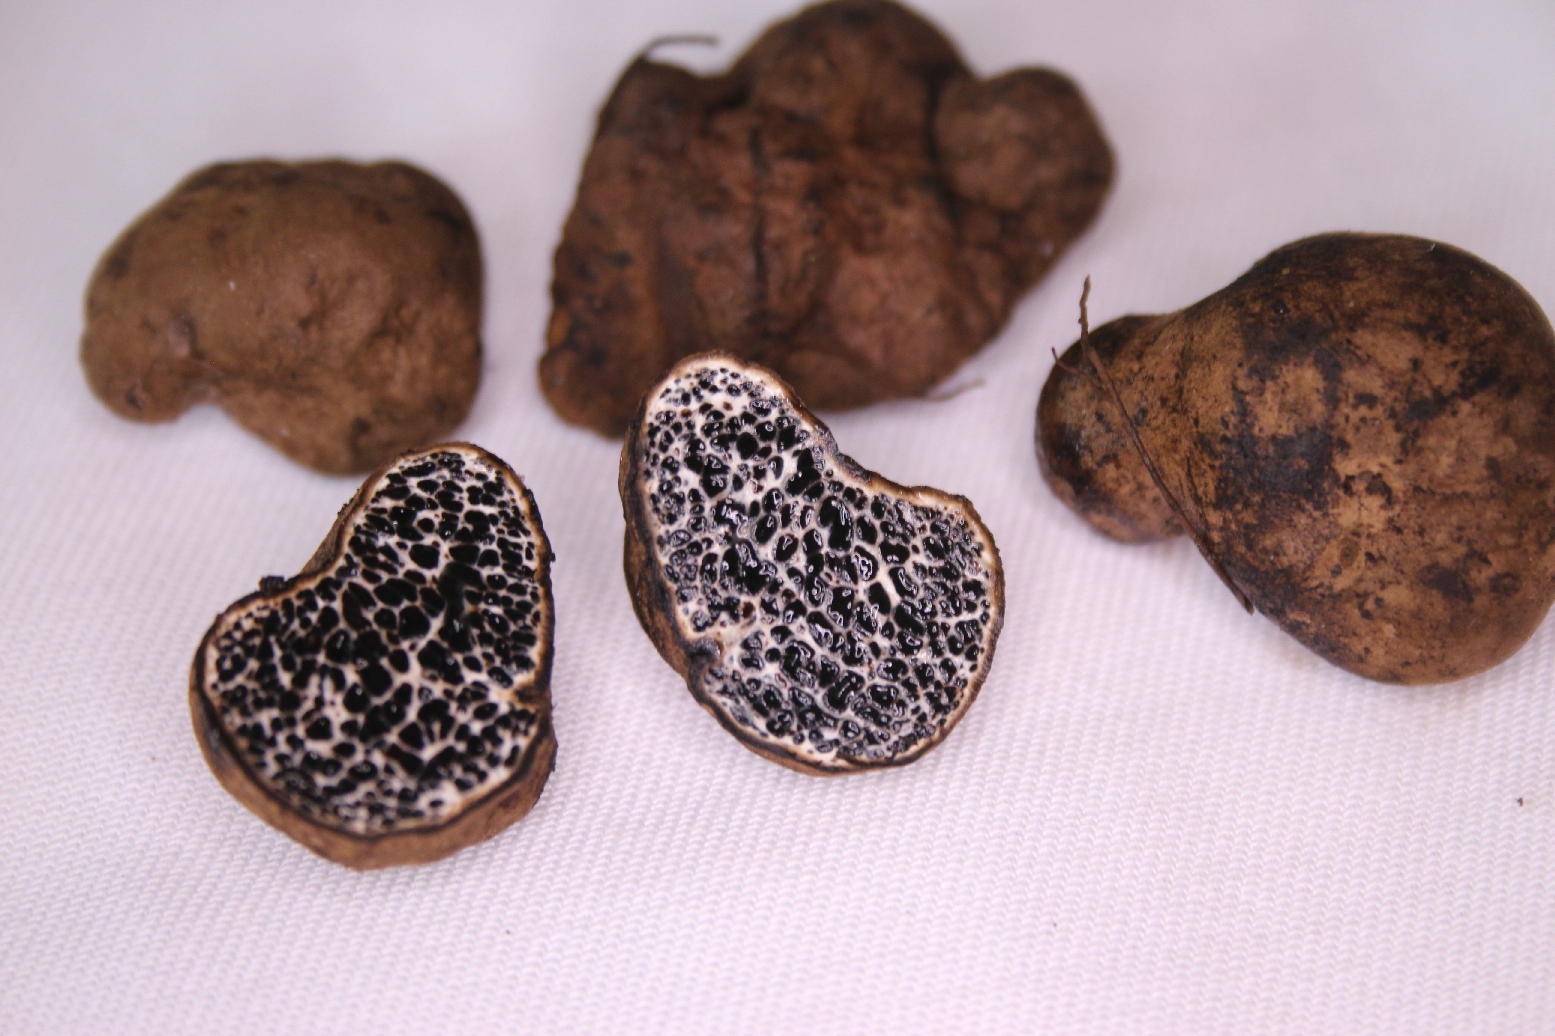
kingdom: Fungi
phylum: Basidiomycota
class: Agaricomycetes
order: Boletales
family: Paxillaceae
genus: Melanogaster
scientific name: Melanogaster ambiguus
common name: lille slimtrøffel
